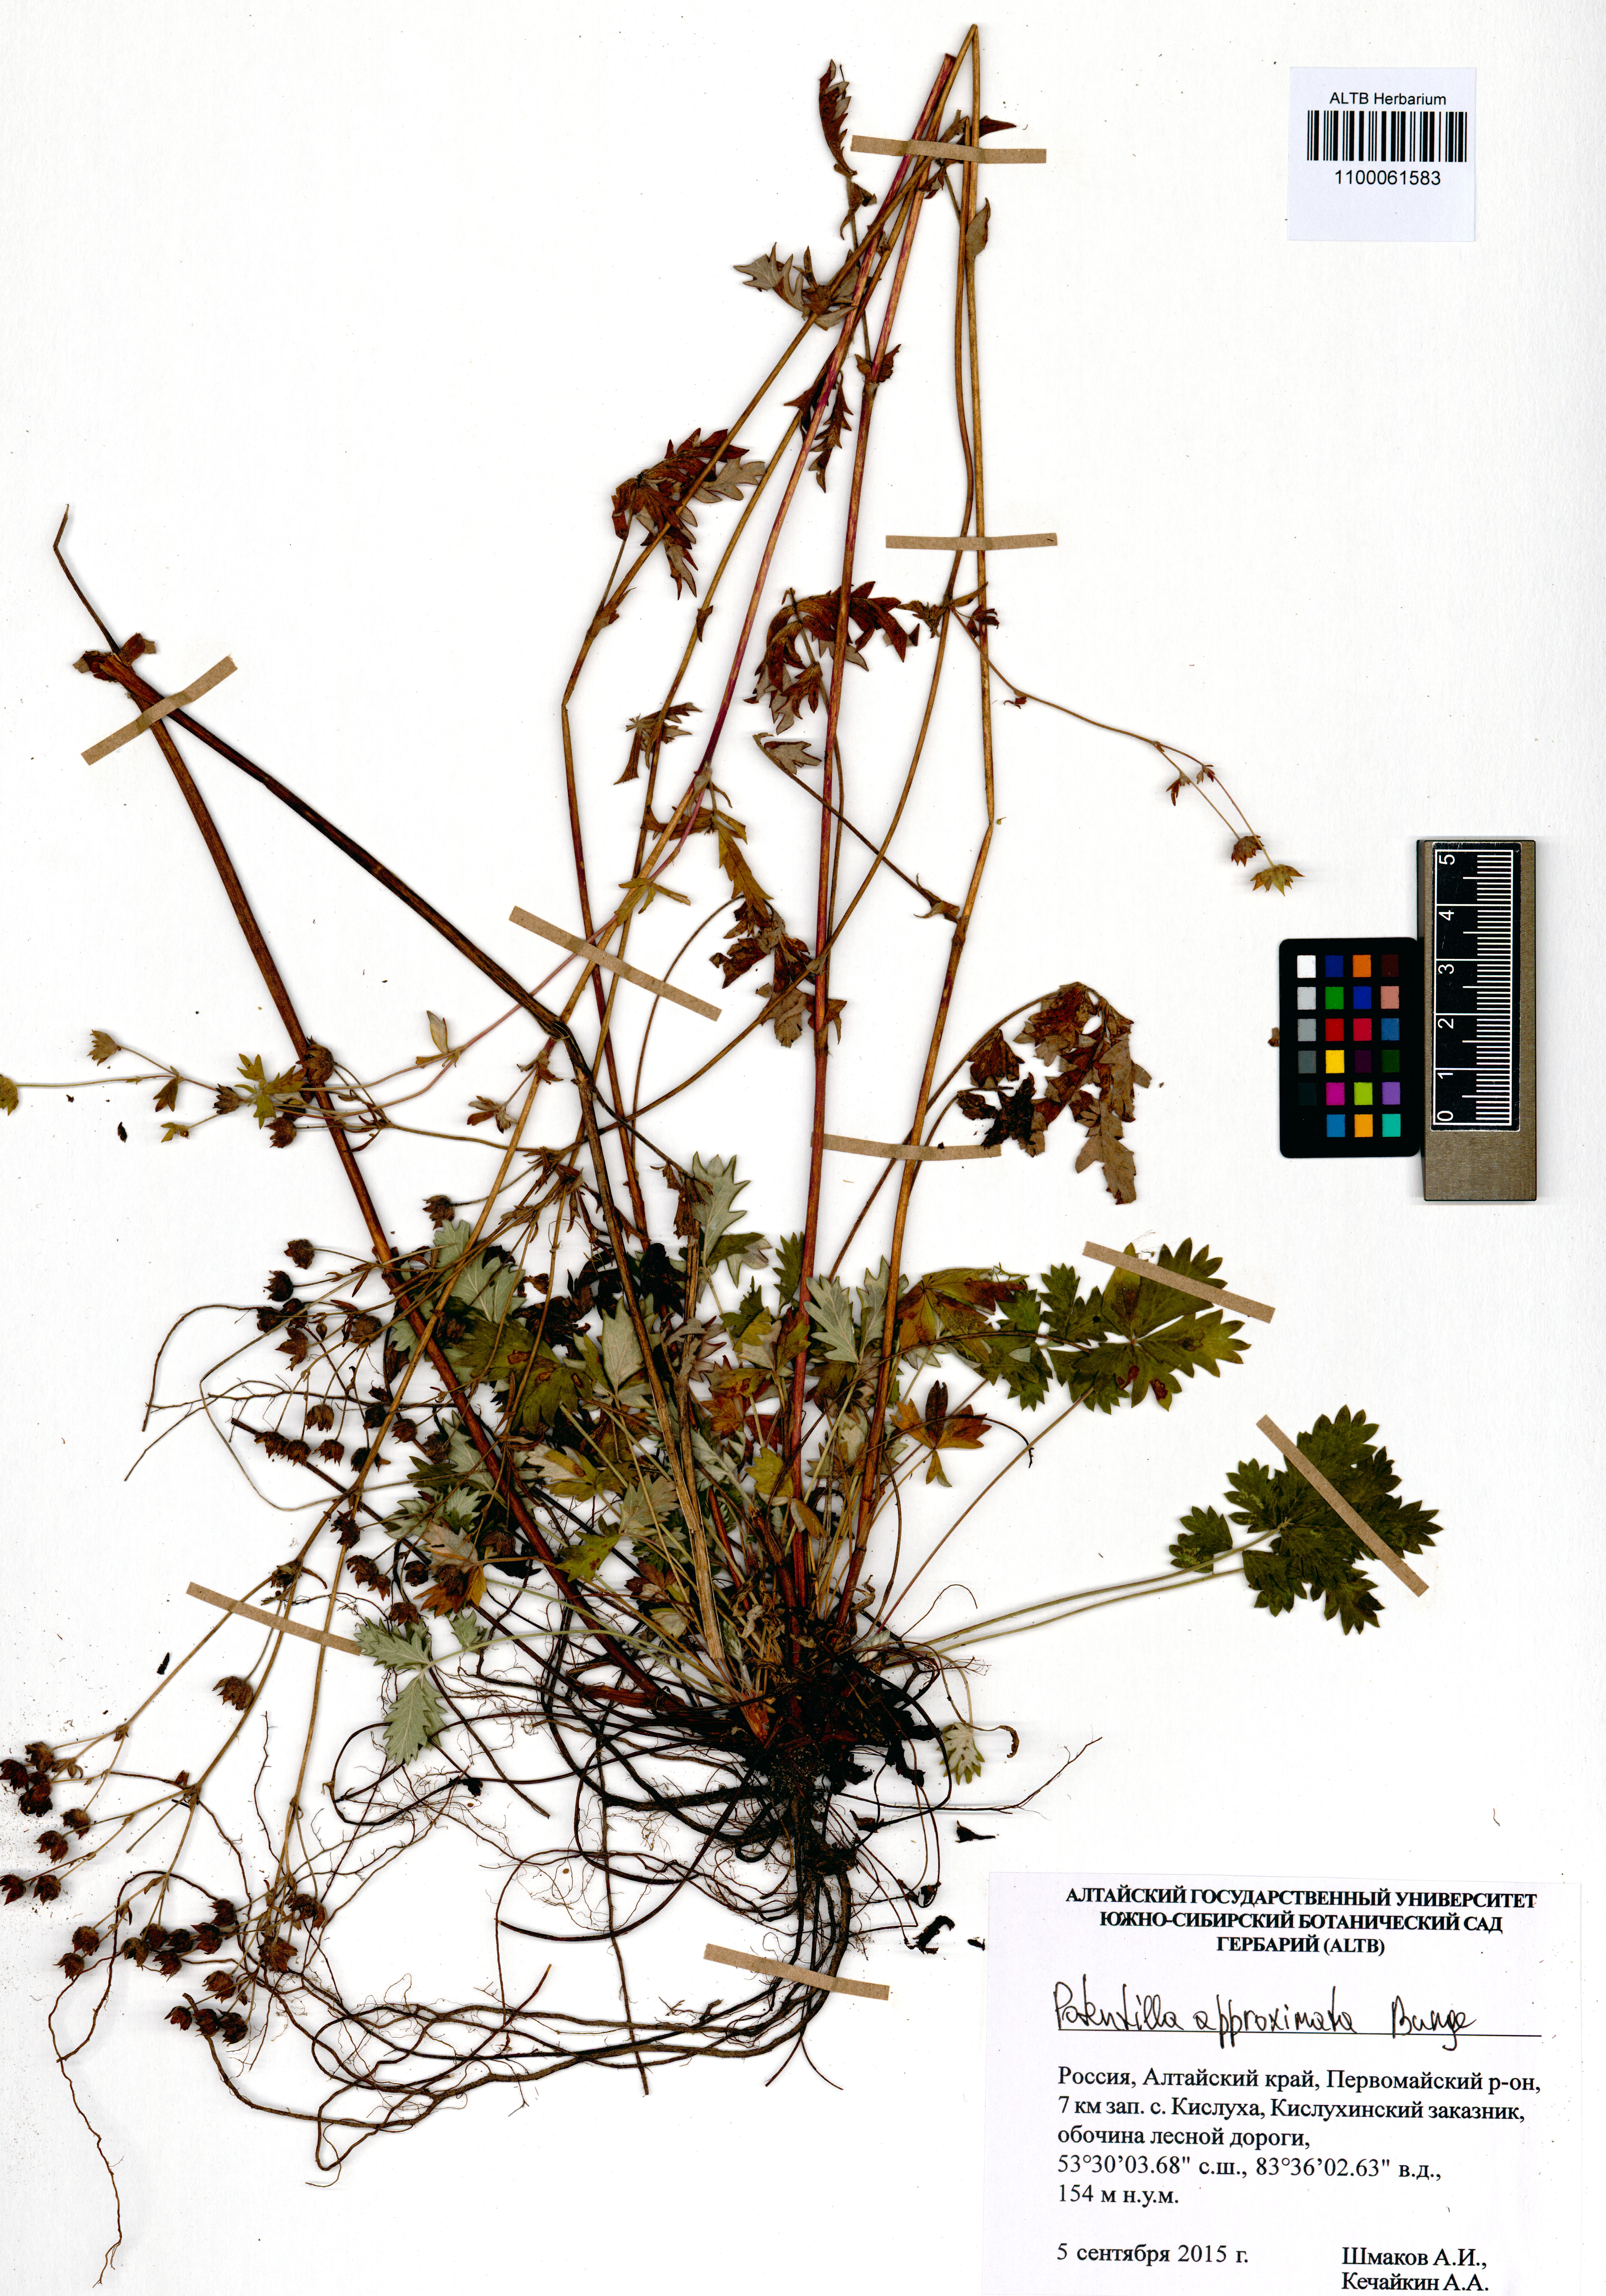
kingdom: Plantae
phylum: Tracheophyta
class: Magnoliopsida
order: Rosales
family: Rosaceae
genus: Potentilla
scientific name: Potentilla conferta
